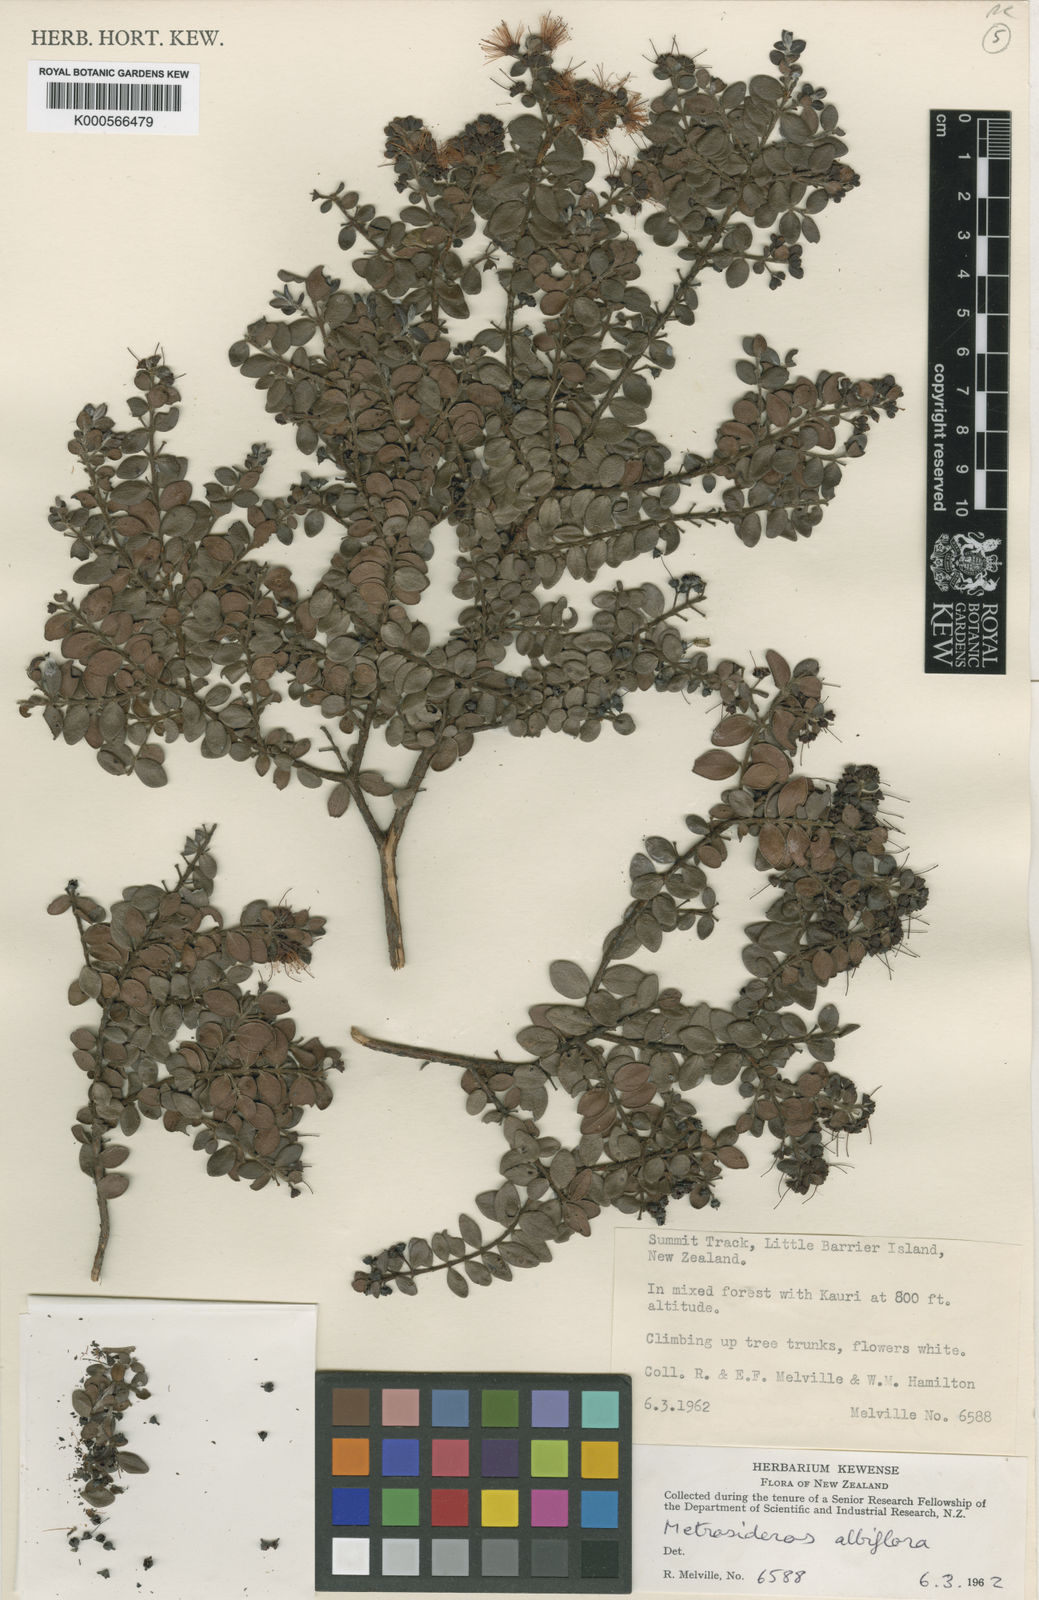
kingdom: Plantae
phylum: Tracheophyta
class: Magnoliopsida
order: Myrtales
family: Myrtaceae
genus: Metrosideros
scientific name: Metrosideros albiflora
